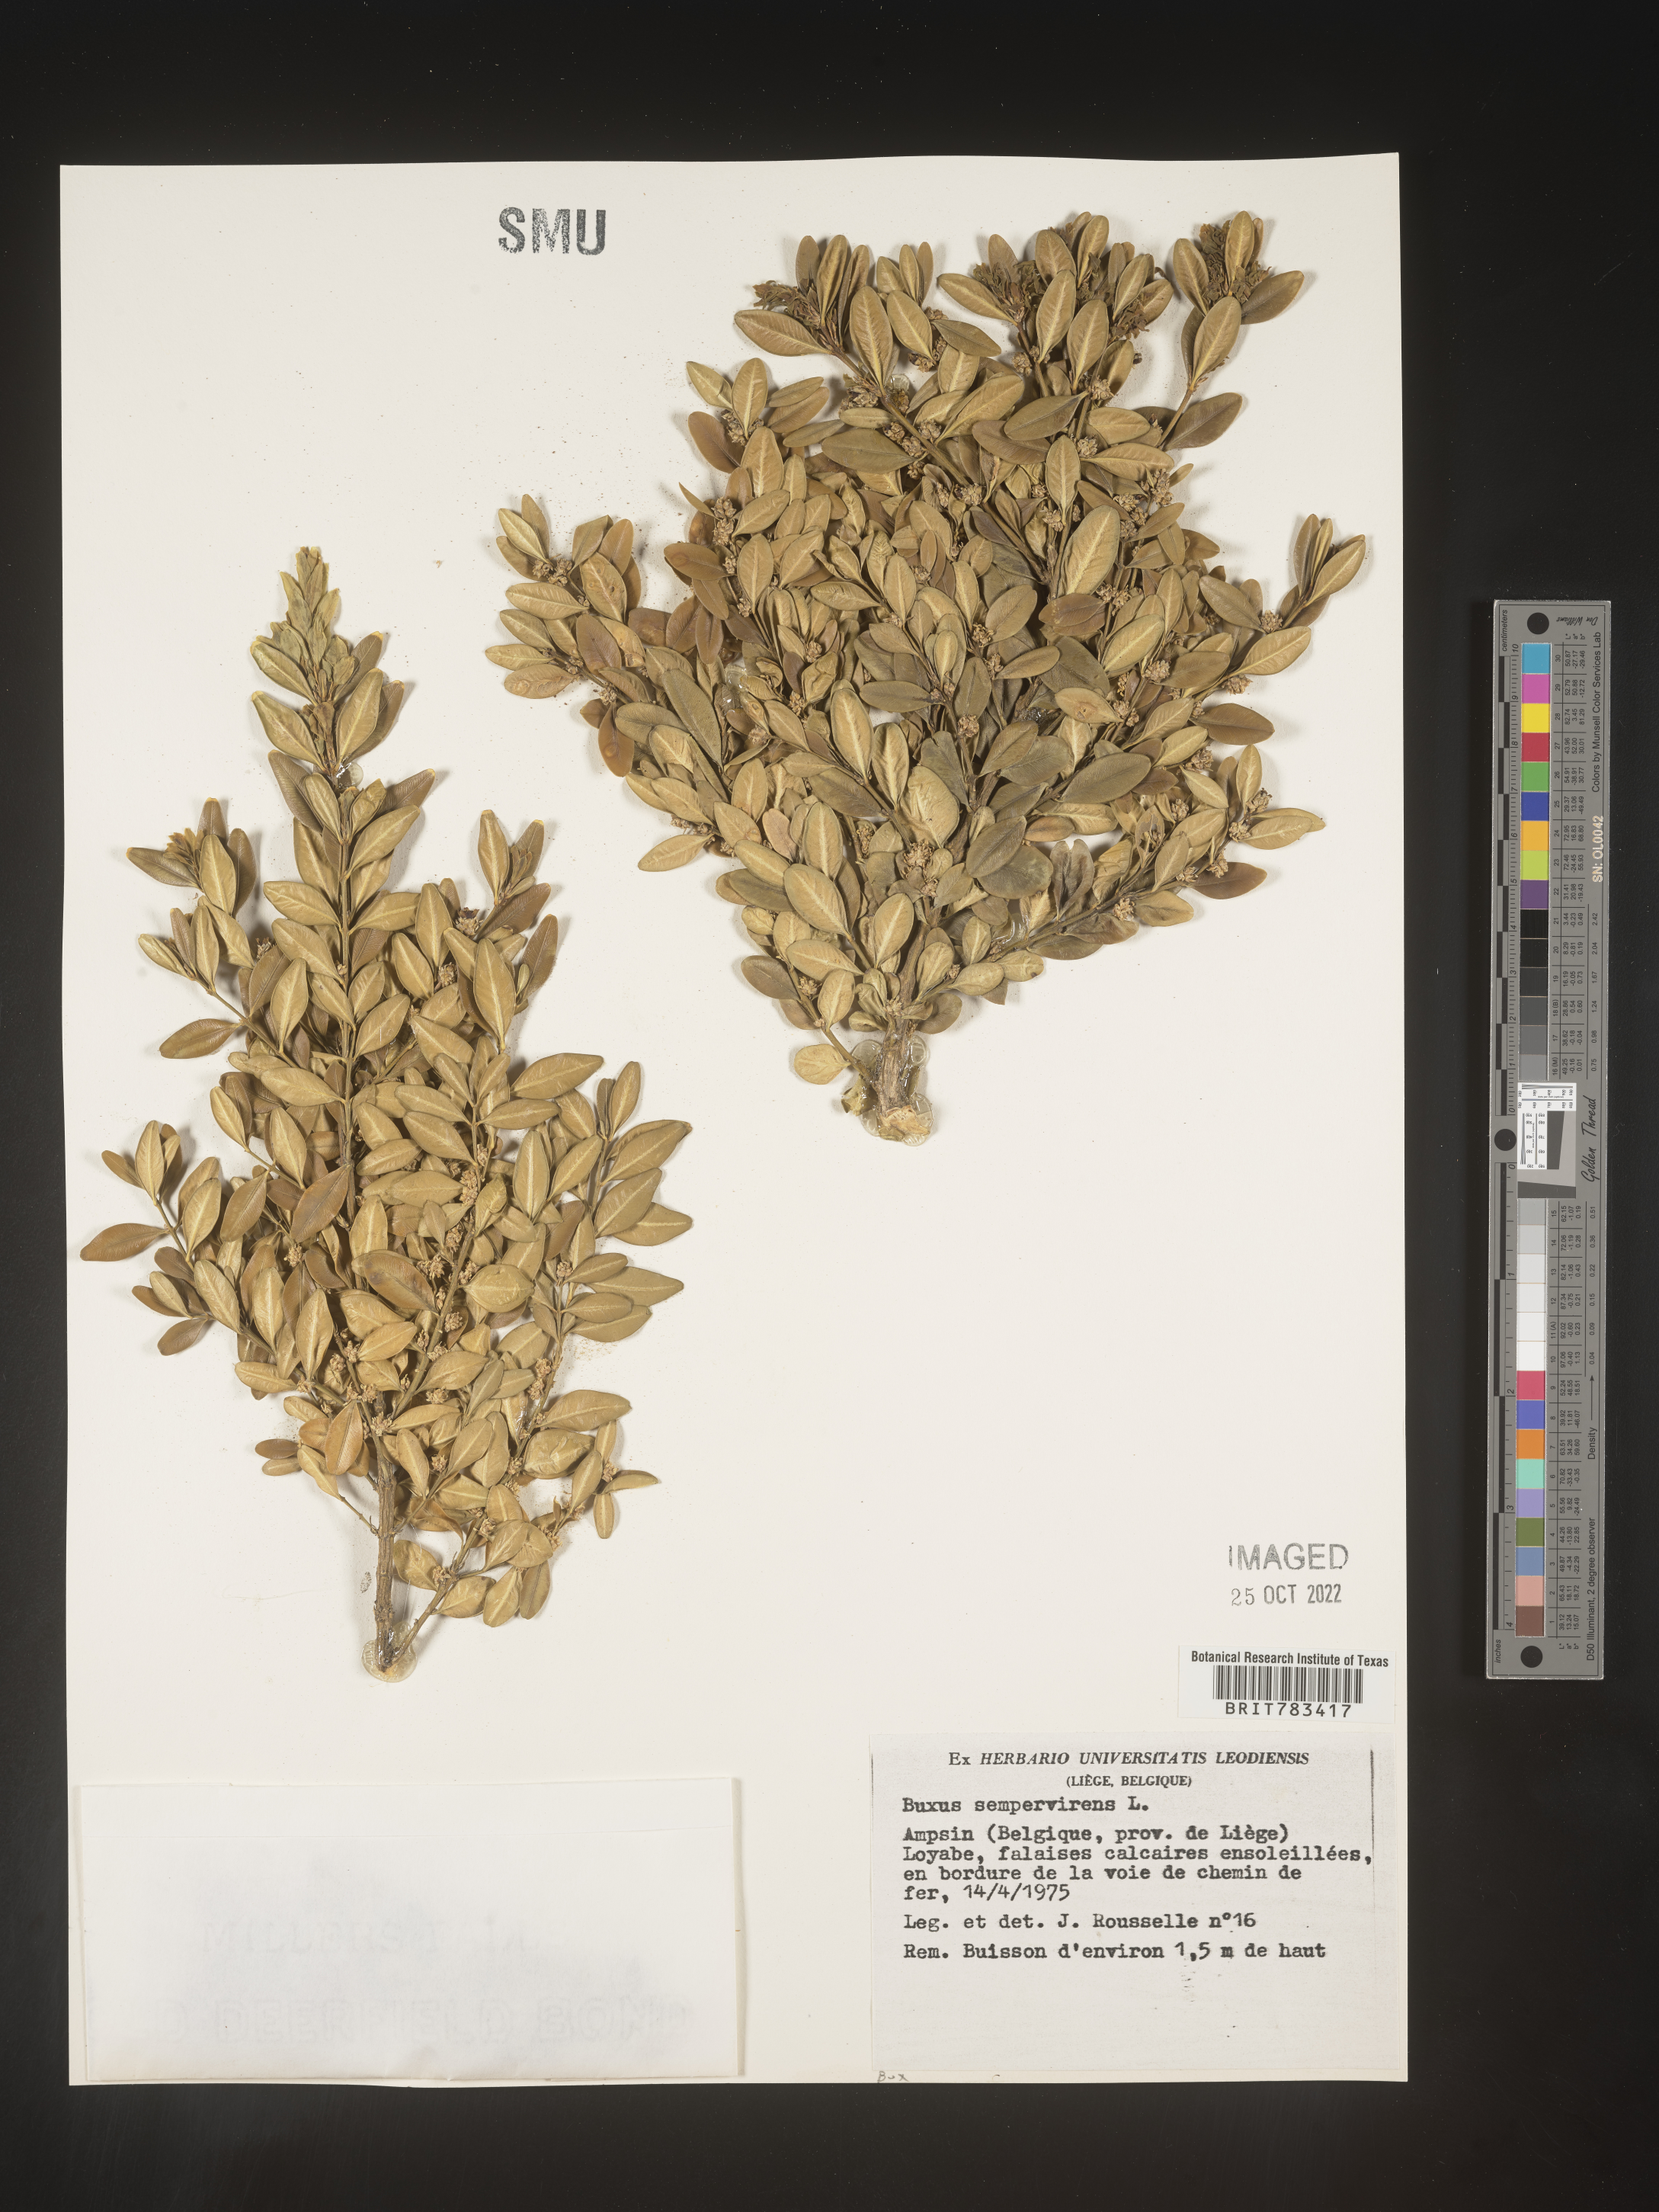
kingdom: Plantae
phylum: Tracheophyta
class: Magnoliopsida
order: Buxales
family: Buxaceae
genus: Buxus
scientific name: Buxus
